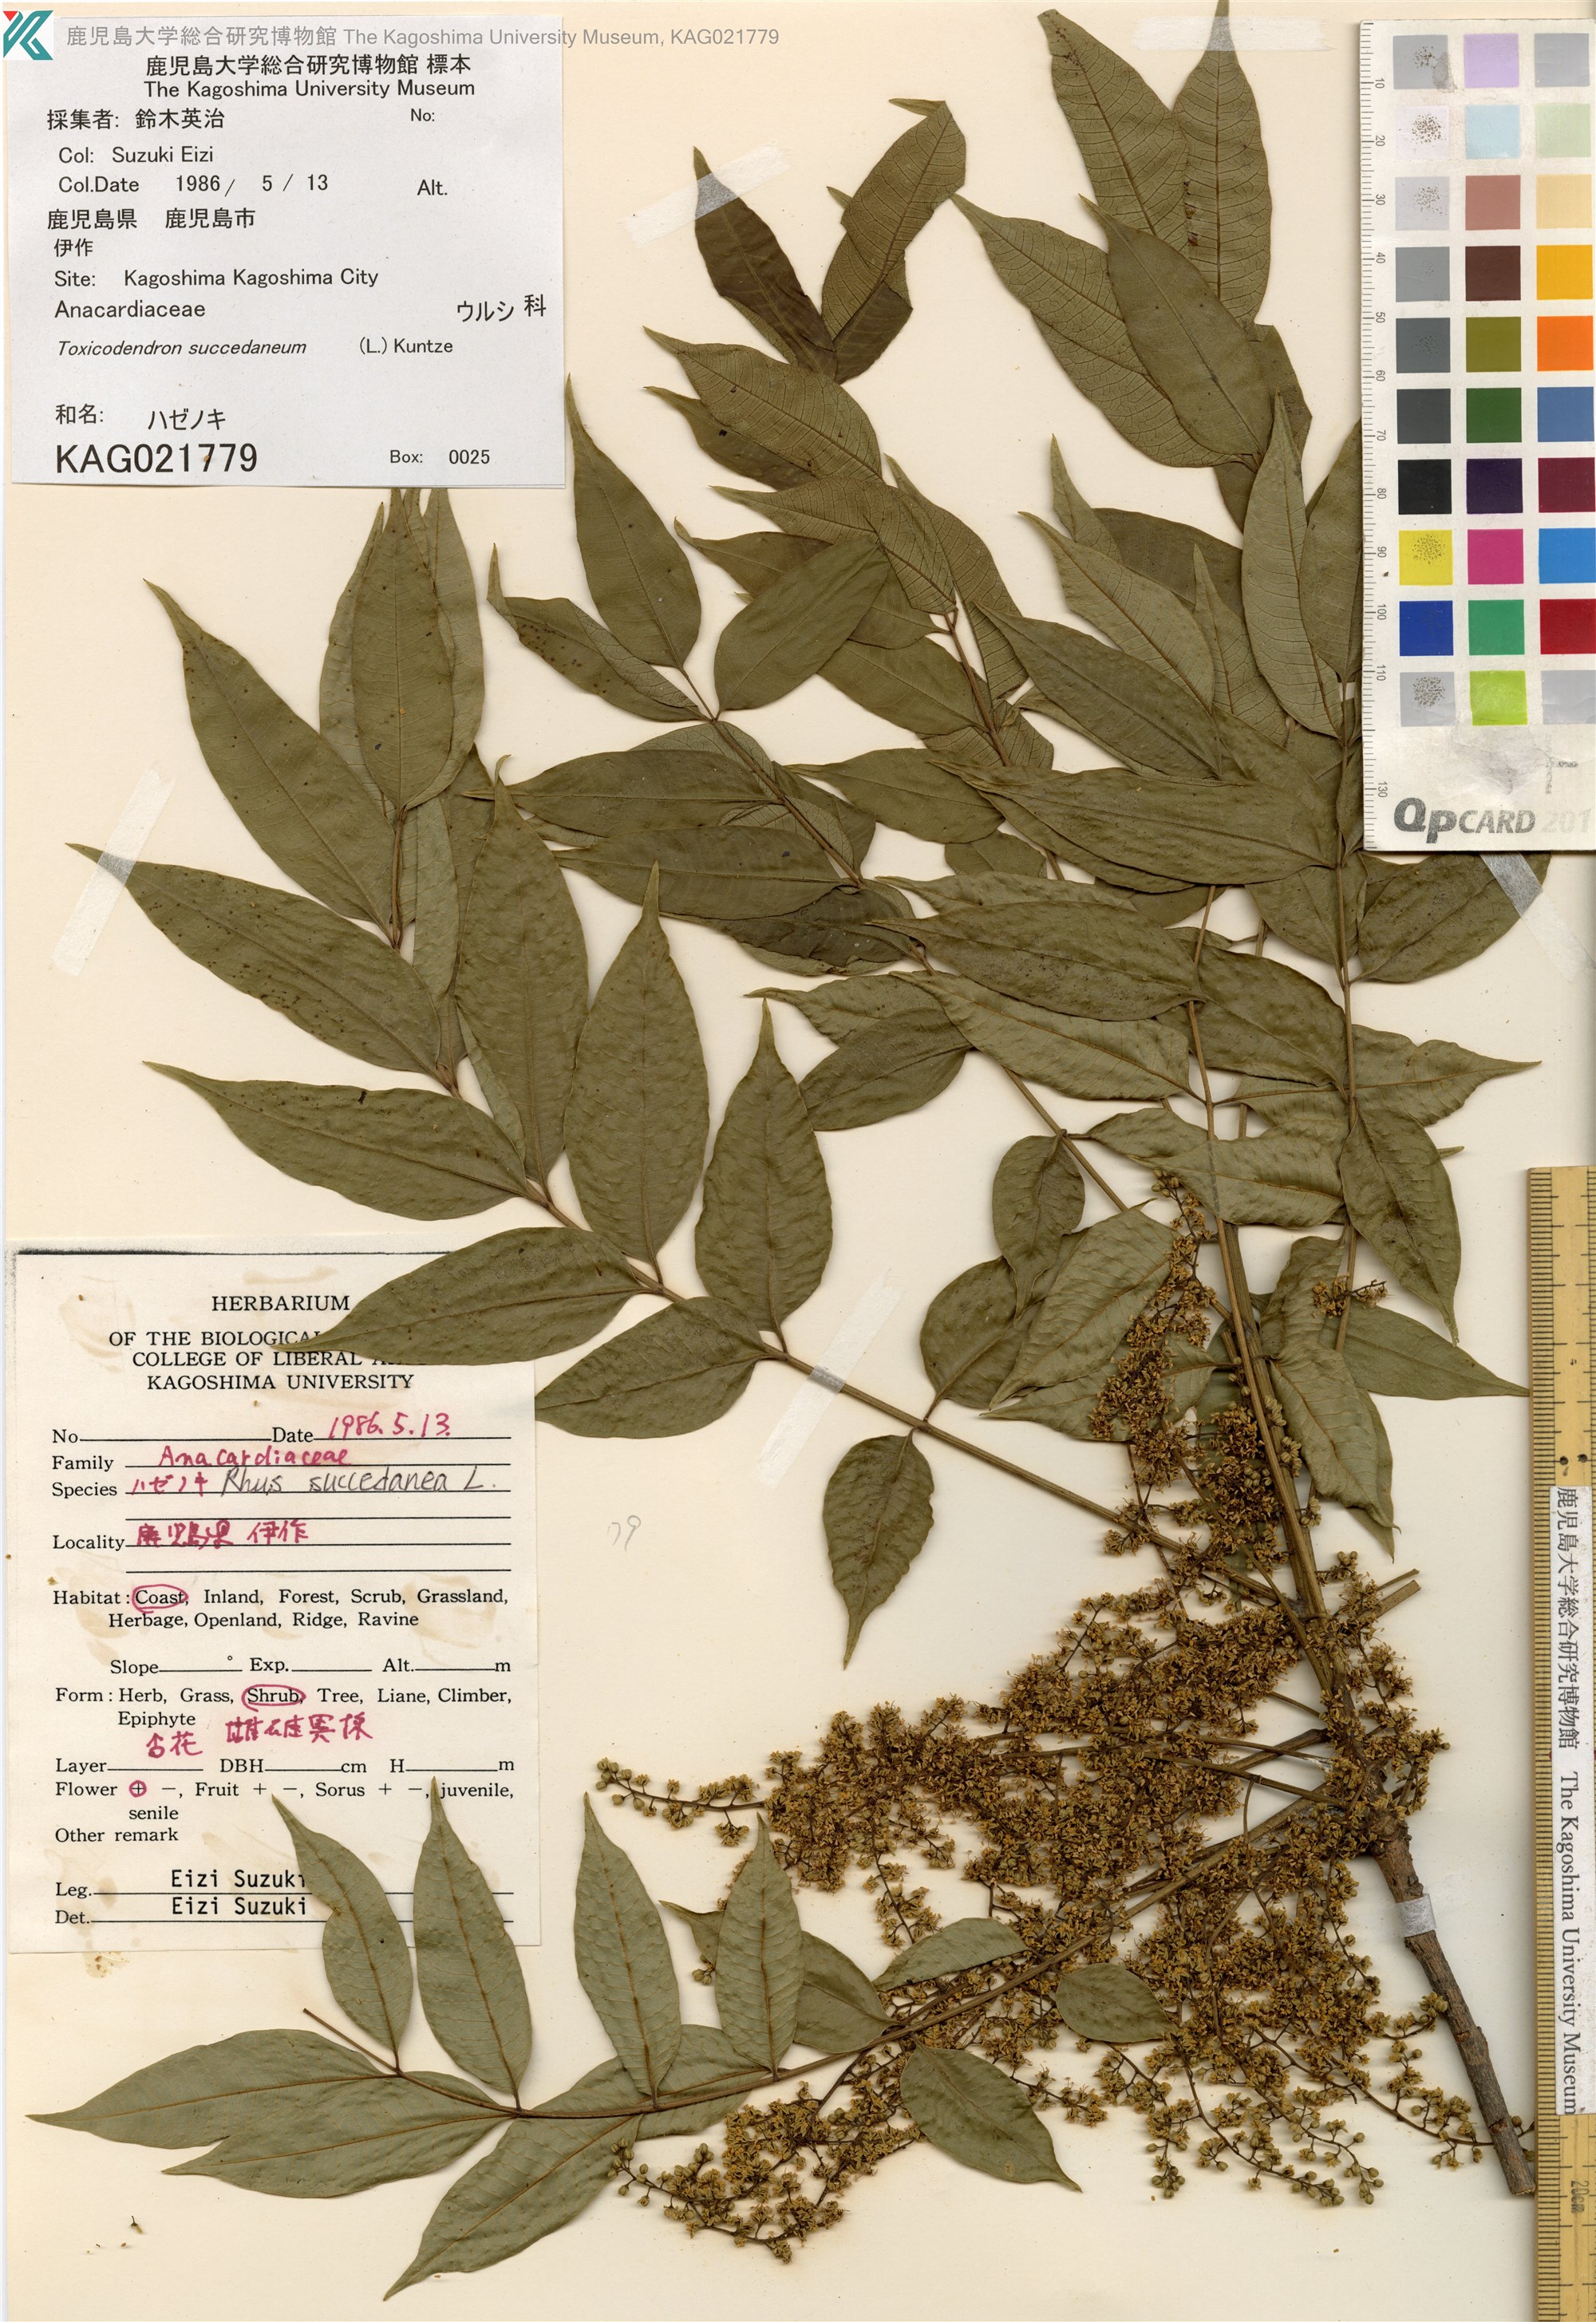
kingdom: Plantae
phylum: Tracheophyta
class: Magnoliopsida
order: Sapindales
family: Anacardiaceae
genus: Toxicodendron
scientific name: Toxicodendron succedaneum
